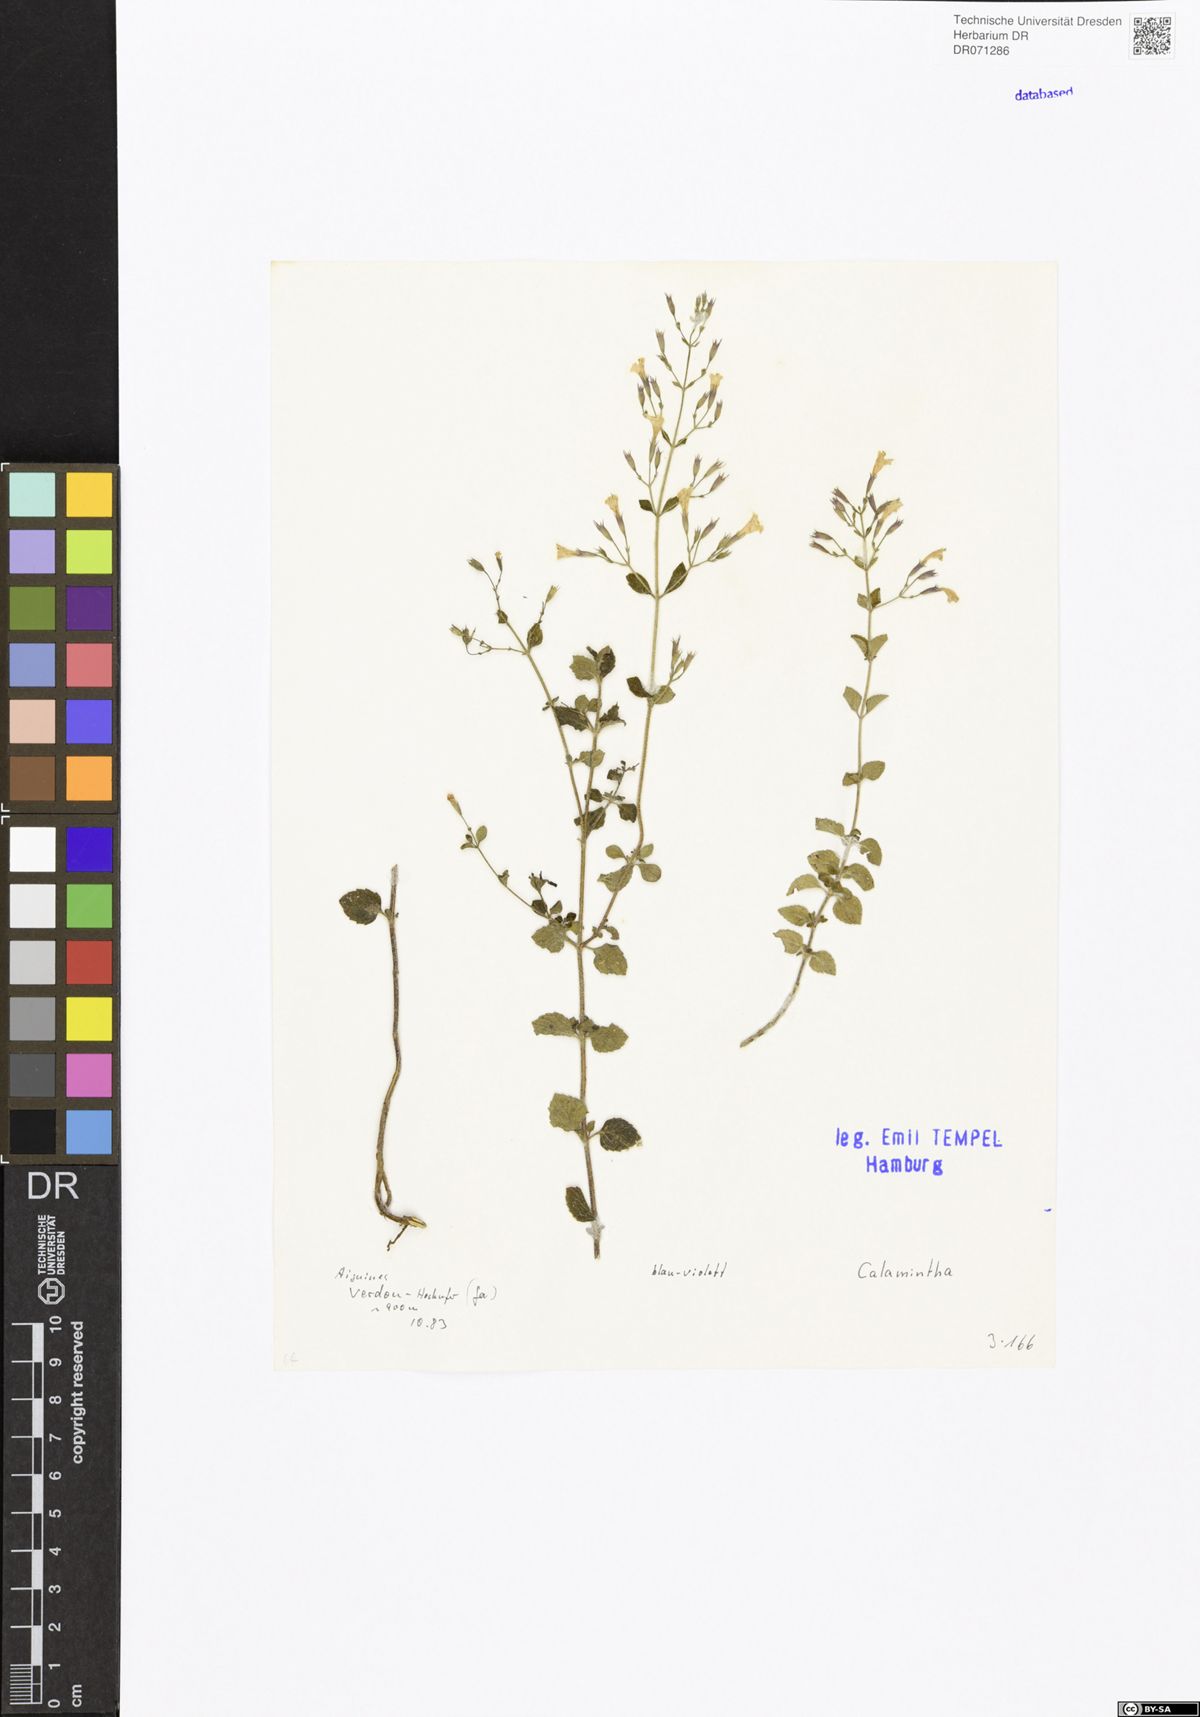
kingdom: Plantae
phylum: Tracheophyta
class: Magnoliopsida
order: Lamiales
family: Lamiaceae
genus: Calamintha
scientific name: Calamintha
